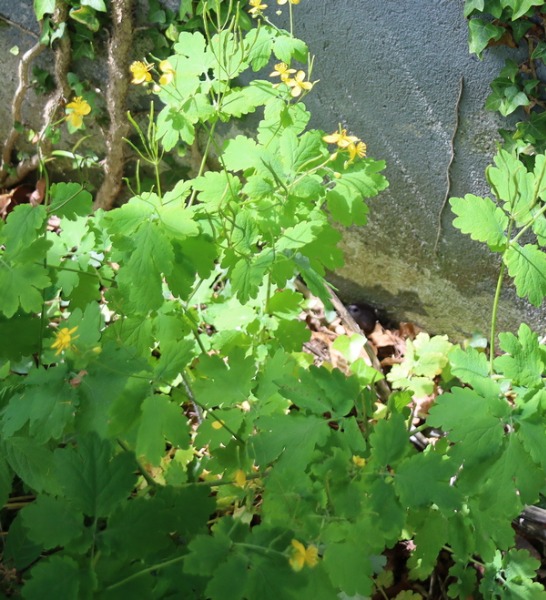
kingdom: Plantae
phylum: Tracheophyta
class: Magnoliopsida
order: Ranunculales
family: Papaveraceae
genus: Chelidonium
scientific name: Chelidonium majus
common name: Svaleurt
